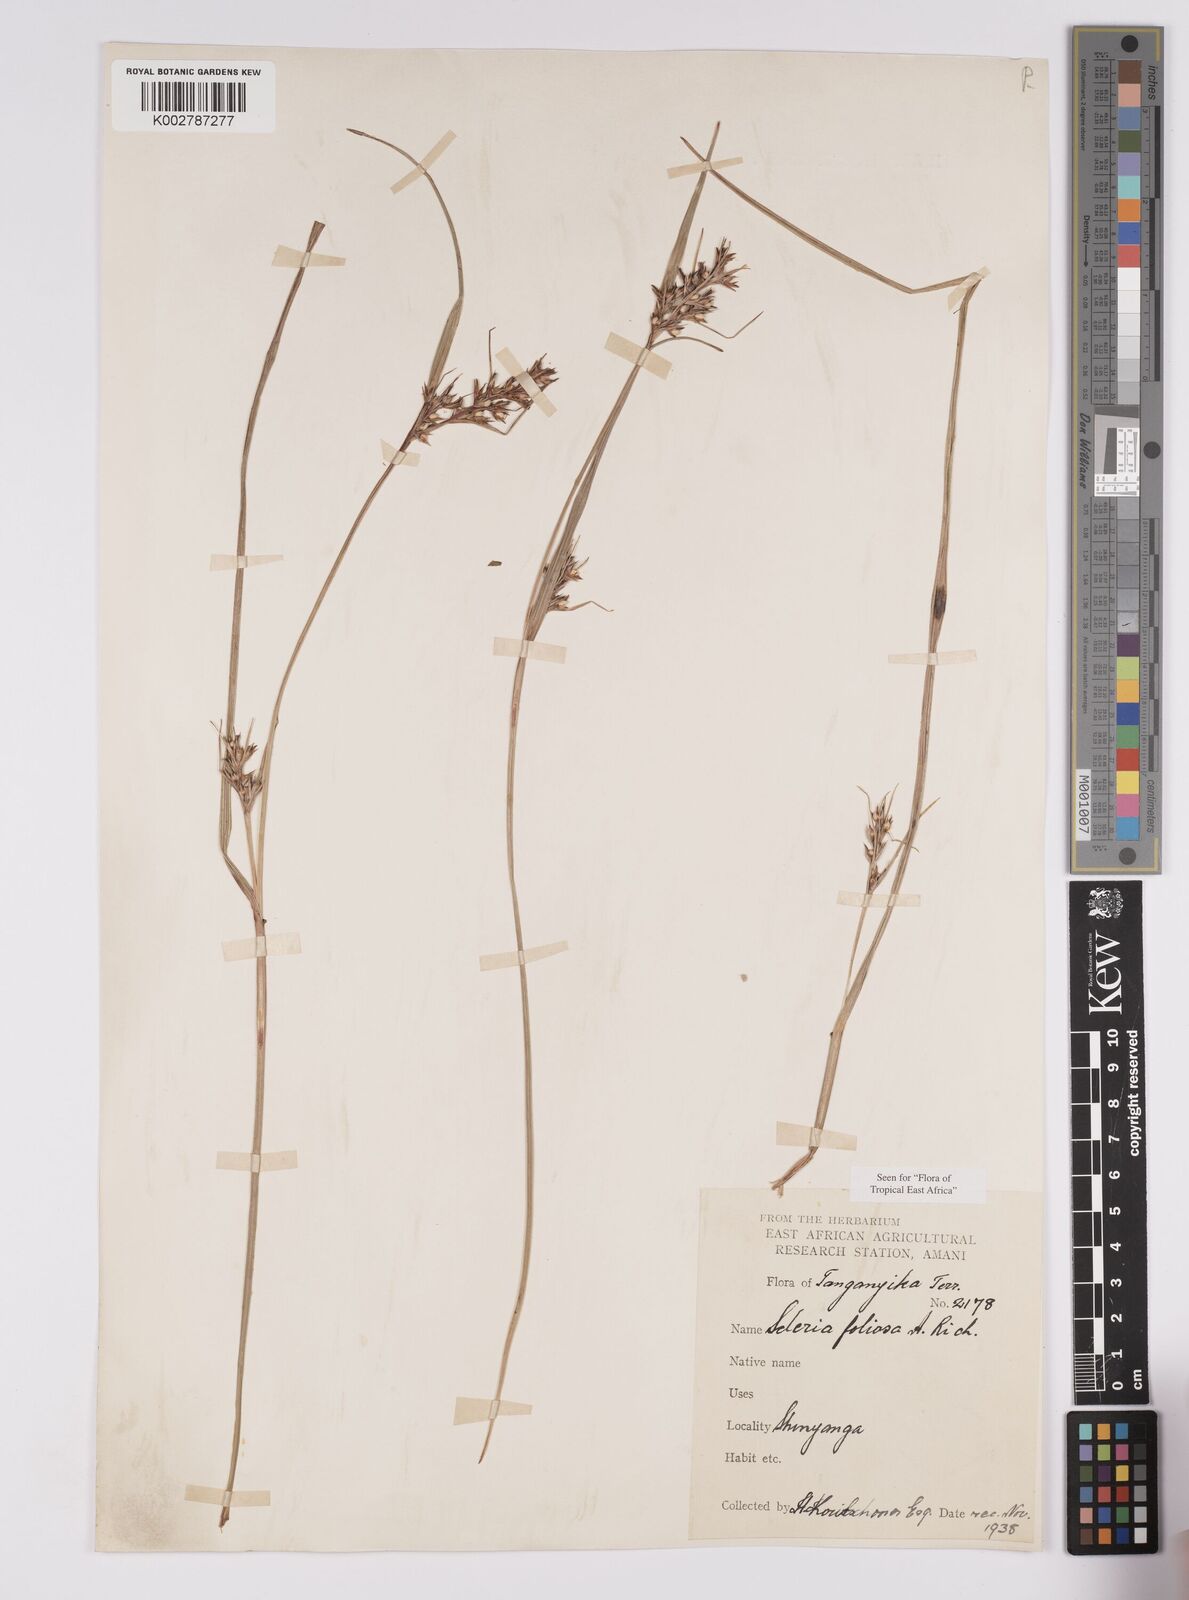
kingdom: Plantae
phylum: Tracheophyta
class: Liliopsida
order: Poales
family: Cyperaceae
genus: Scleria
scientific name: Scleria foliosa
